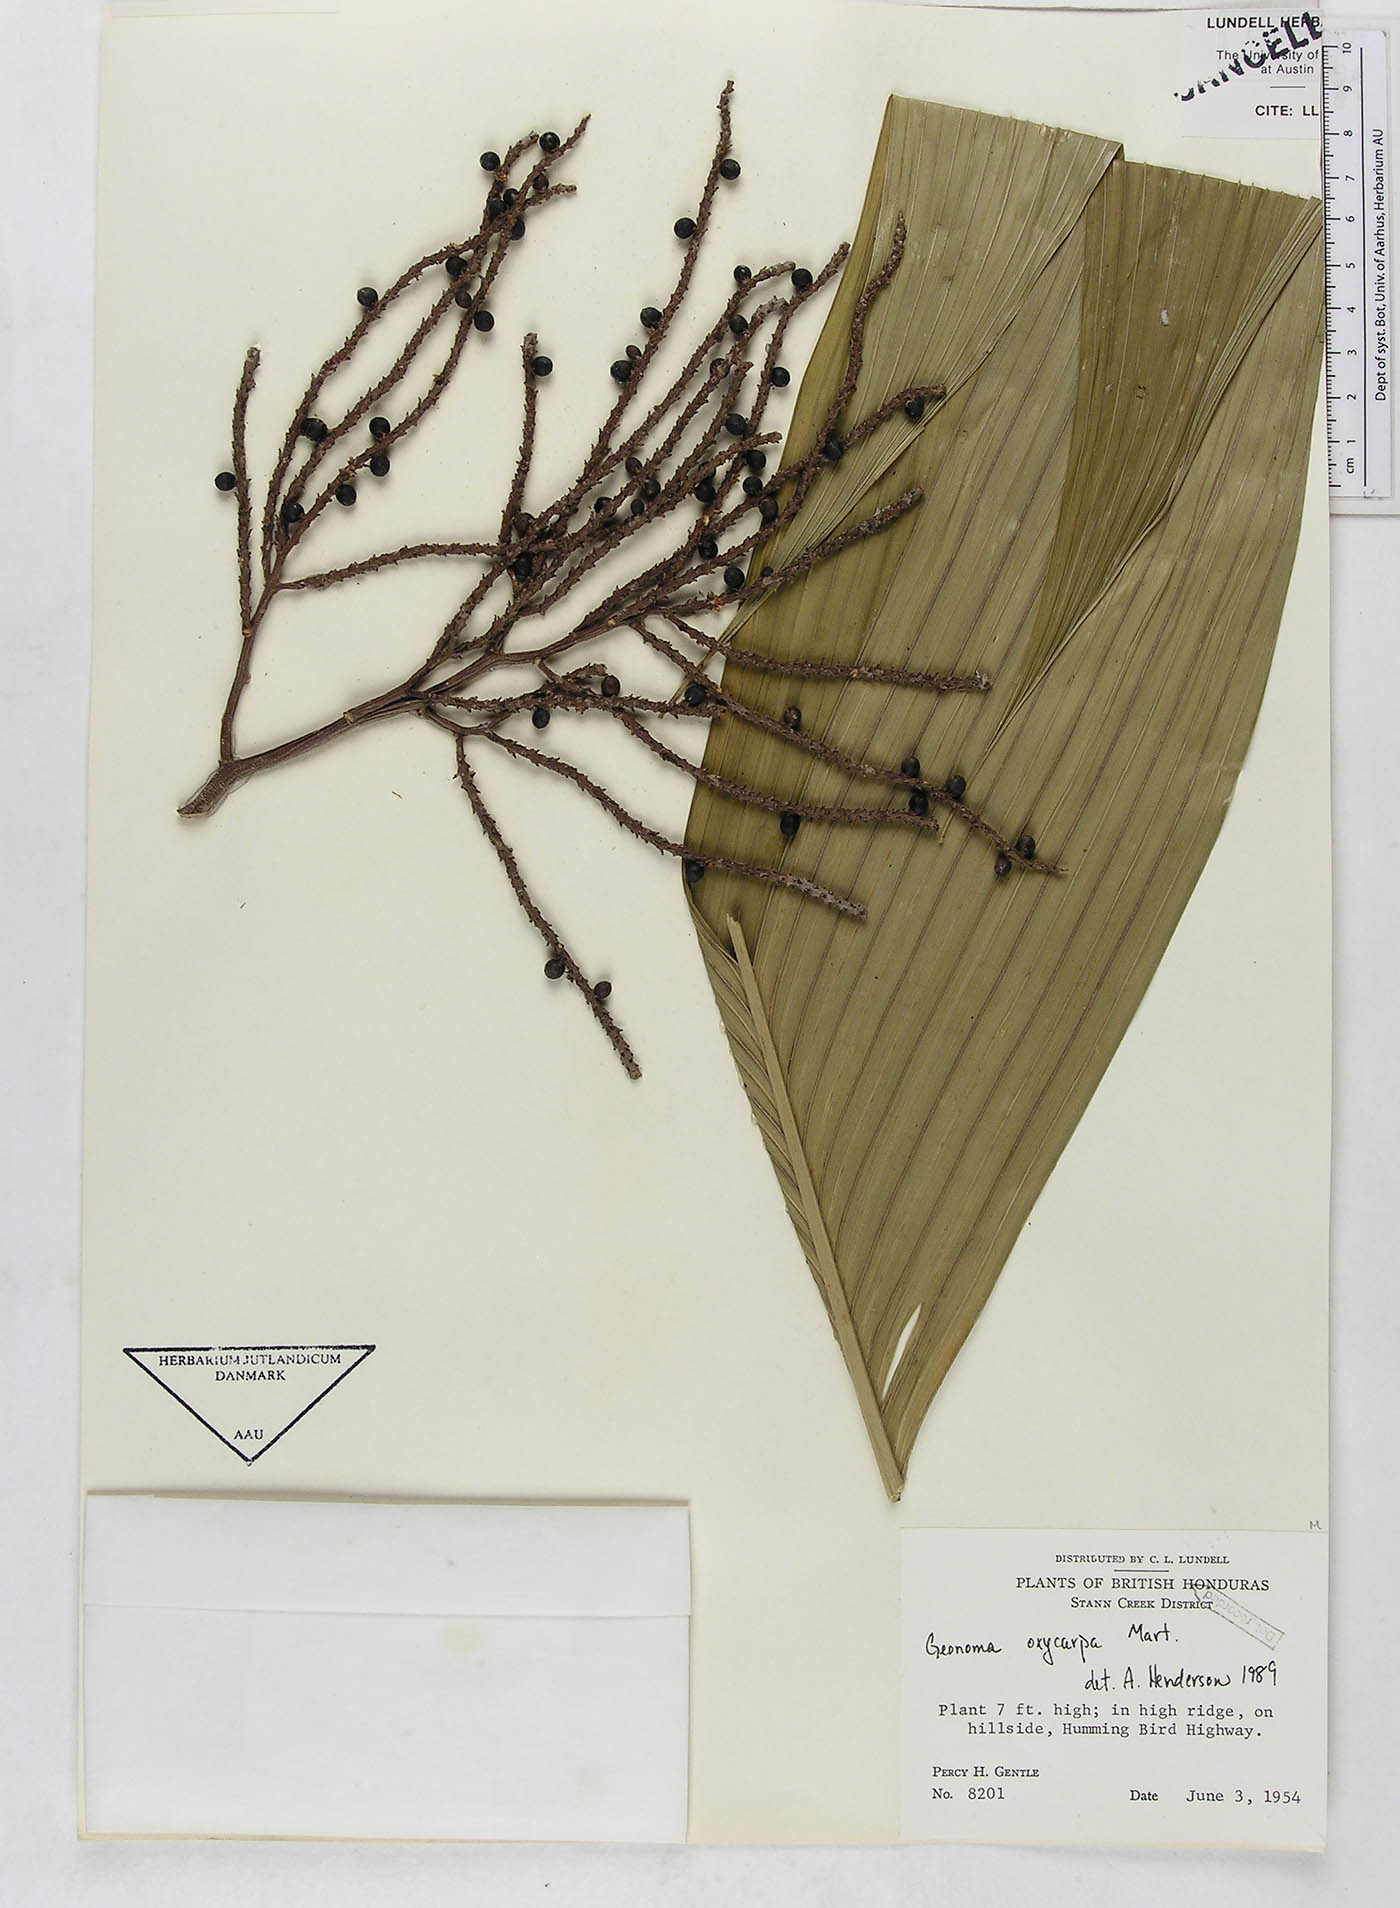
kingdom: Plantae
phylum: Tracheophyta
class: Liliopsida
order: Arecales
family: Arecaceae
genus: Geonoma
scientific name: Geonoma interrupta
